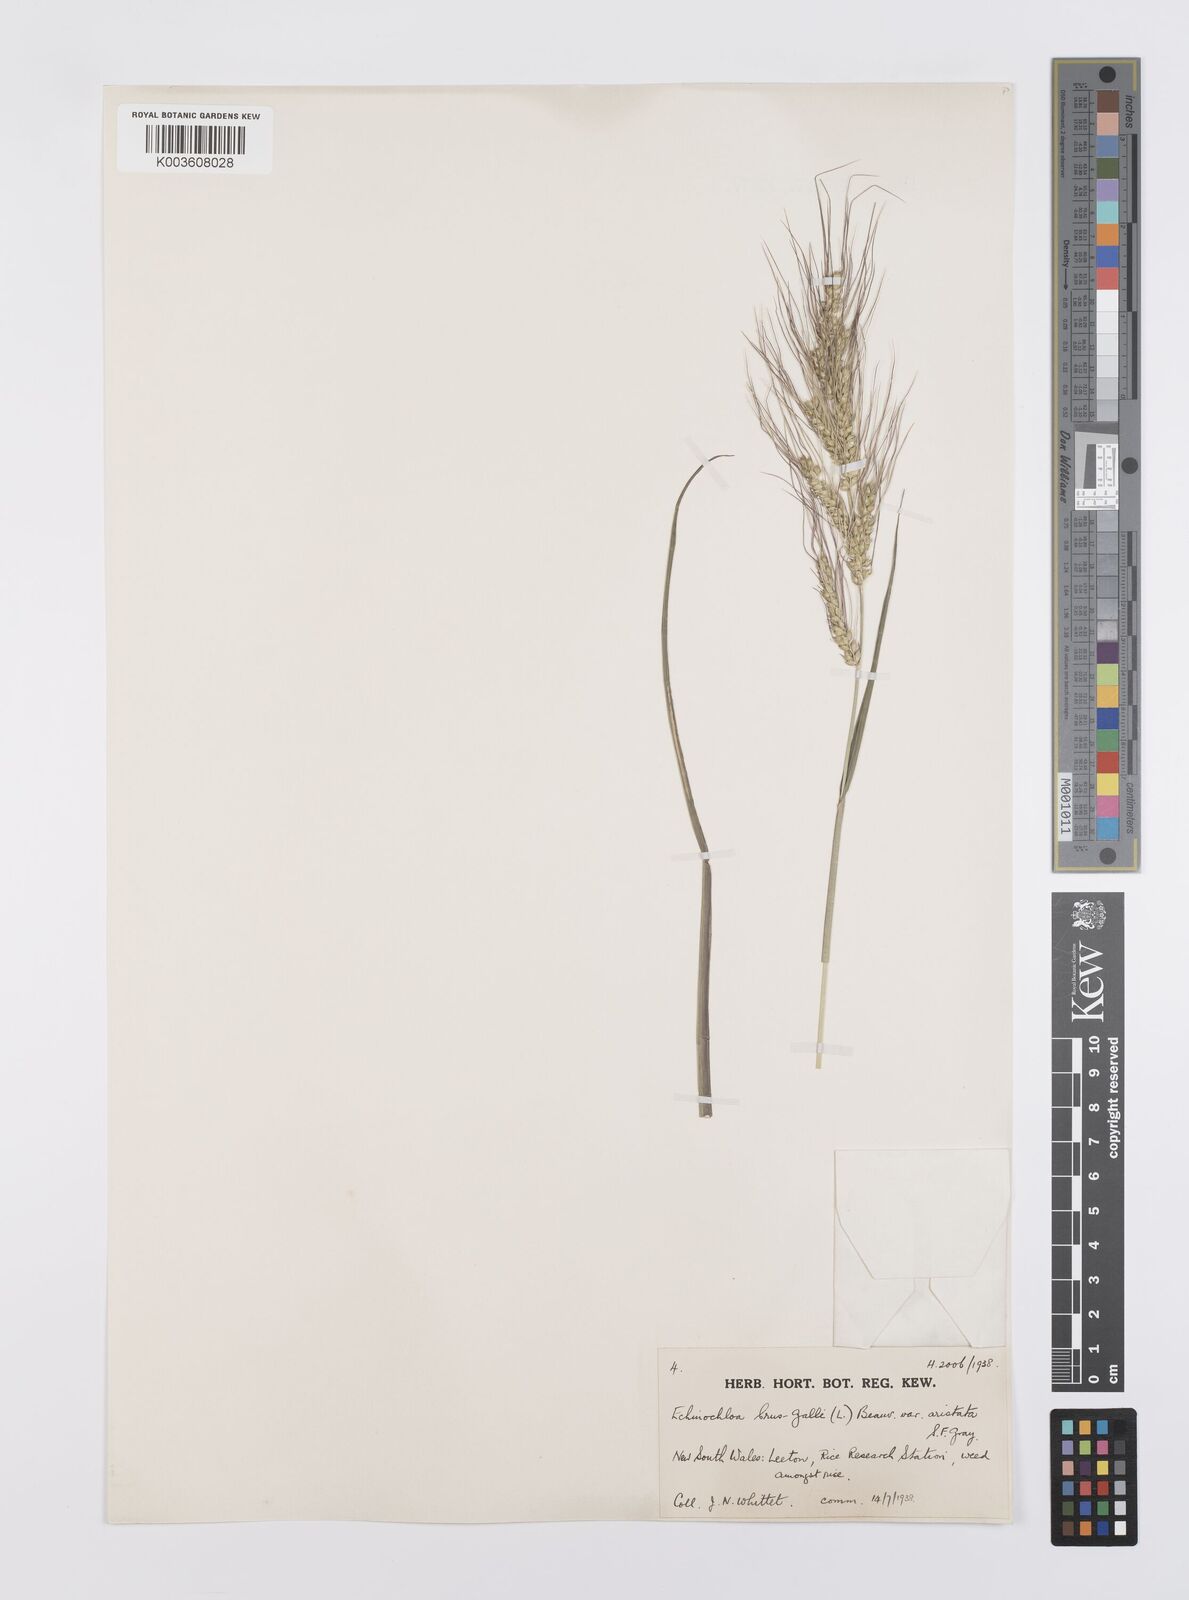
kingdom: Plantae
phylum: Tracheophyta
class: Liliopsida
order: Poales
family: Poaceae
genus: Echinochloa
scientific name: Echinochloa crus-galli
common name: Cockspur
